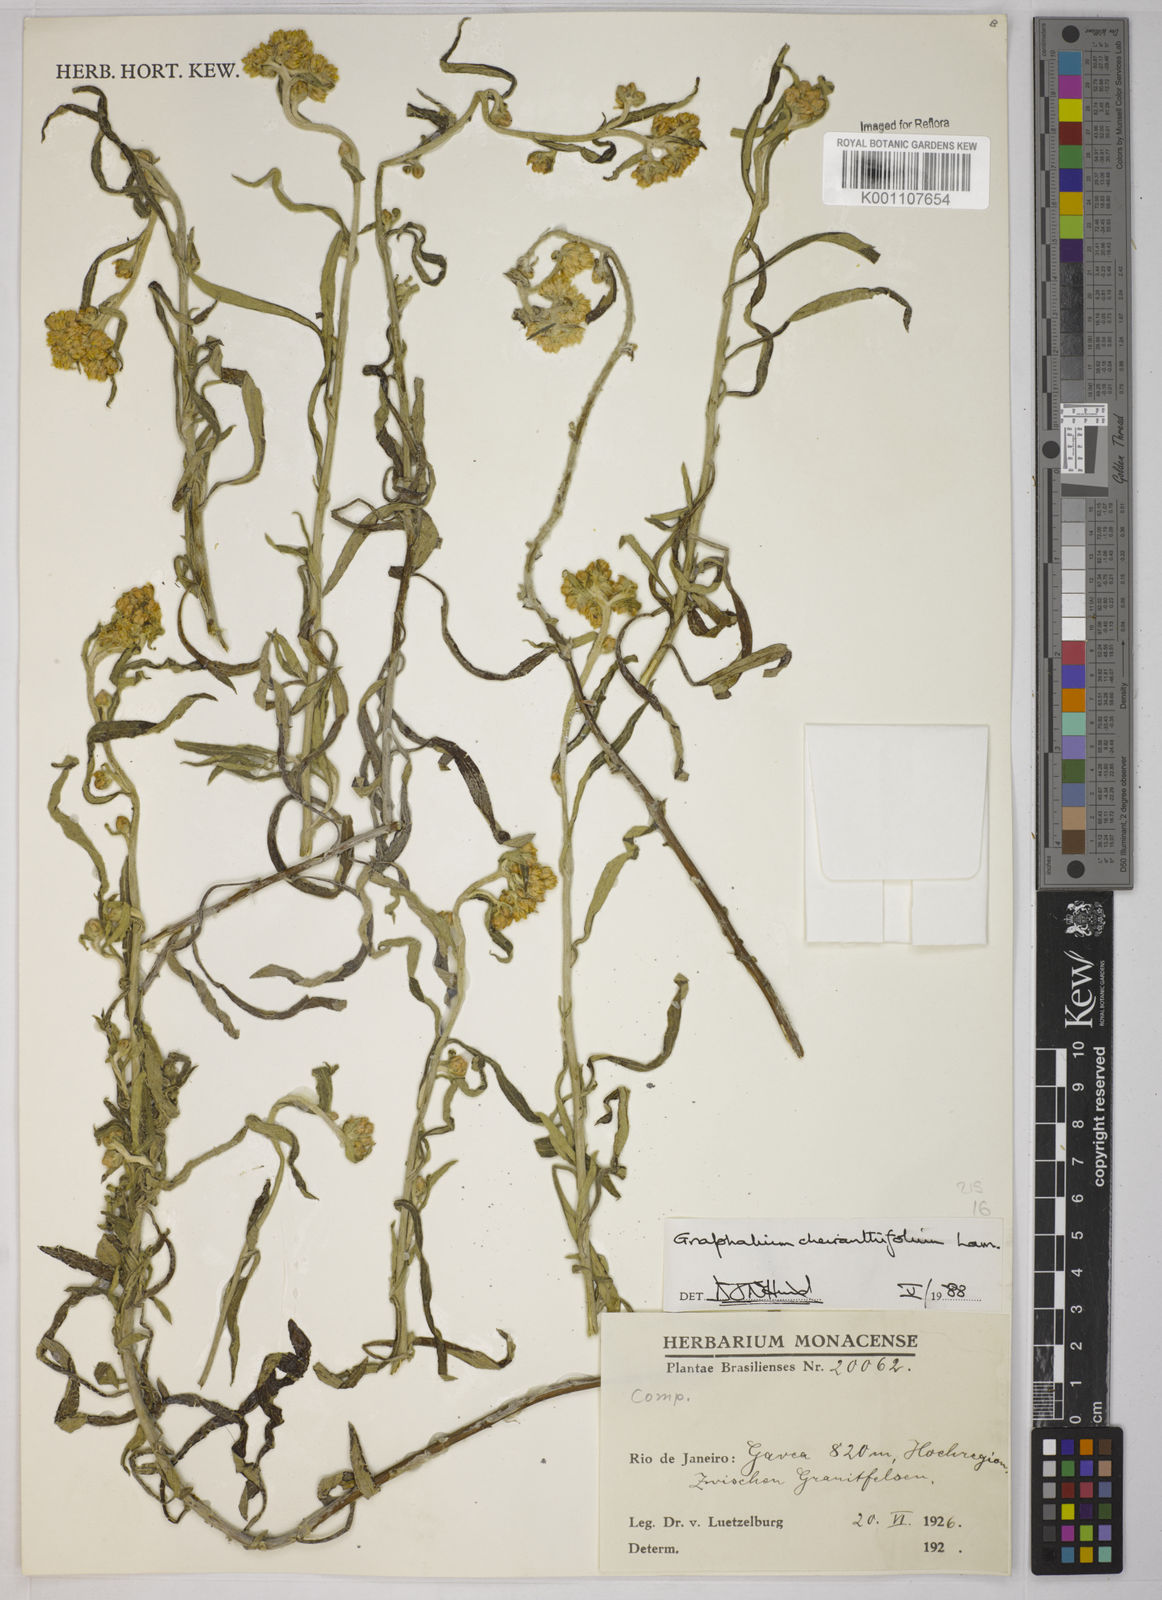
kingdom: Plantae
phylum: Tracheophyta
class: Magnoliopsida
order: Asterales
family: Asteraceae
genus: Pseudognaphalium
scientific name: Pseudognaphalium cheiranthifolium
